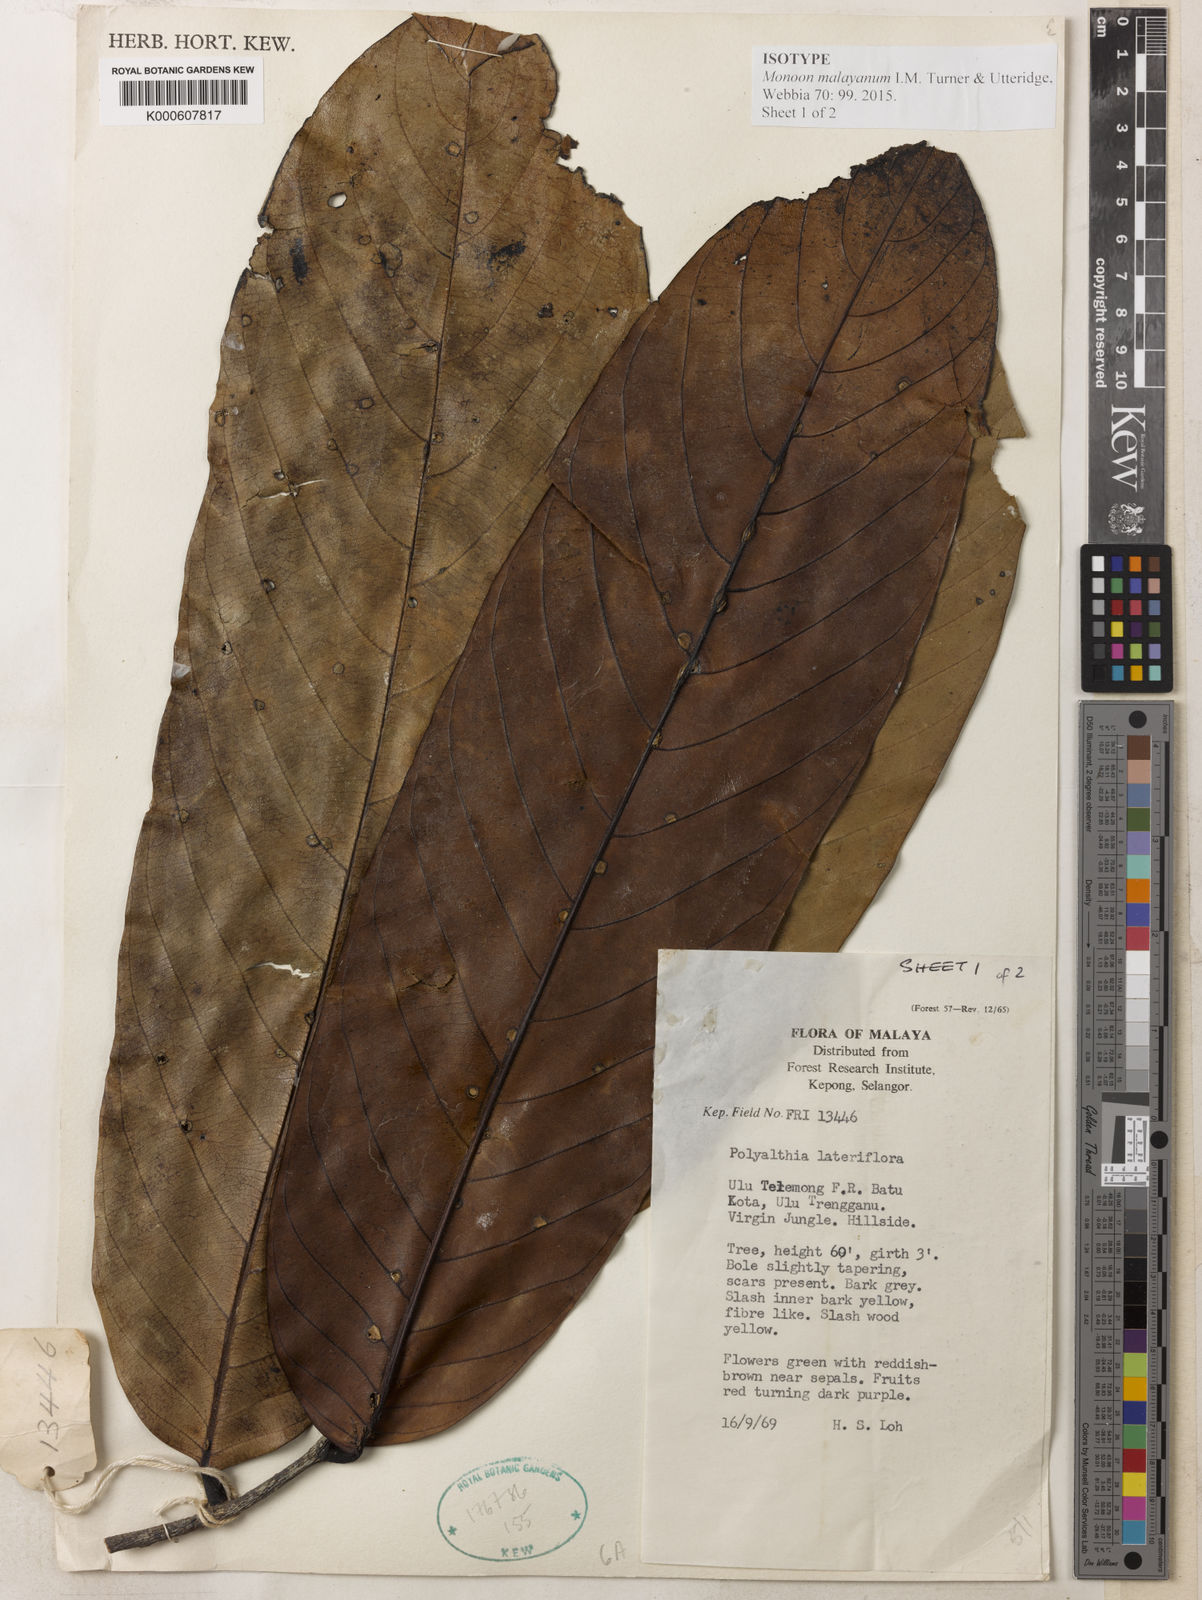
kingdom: Plantae
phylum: Tracheophyta
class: Magnoliopsida
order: Magnoliales
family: Annonaceae
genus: Monoon
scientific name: Monoon malayanum
